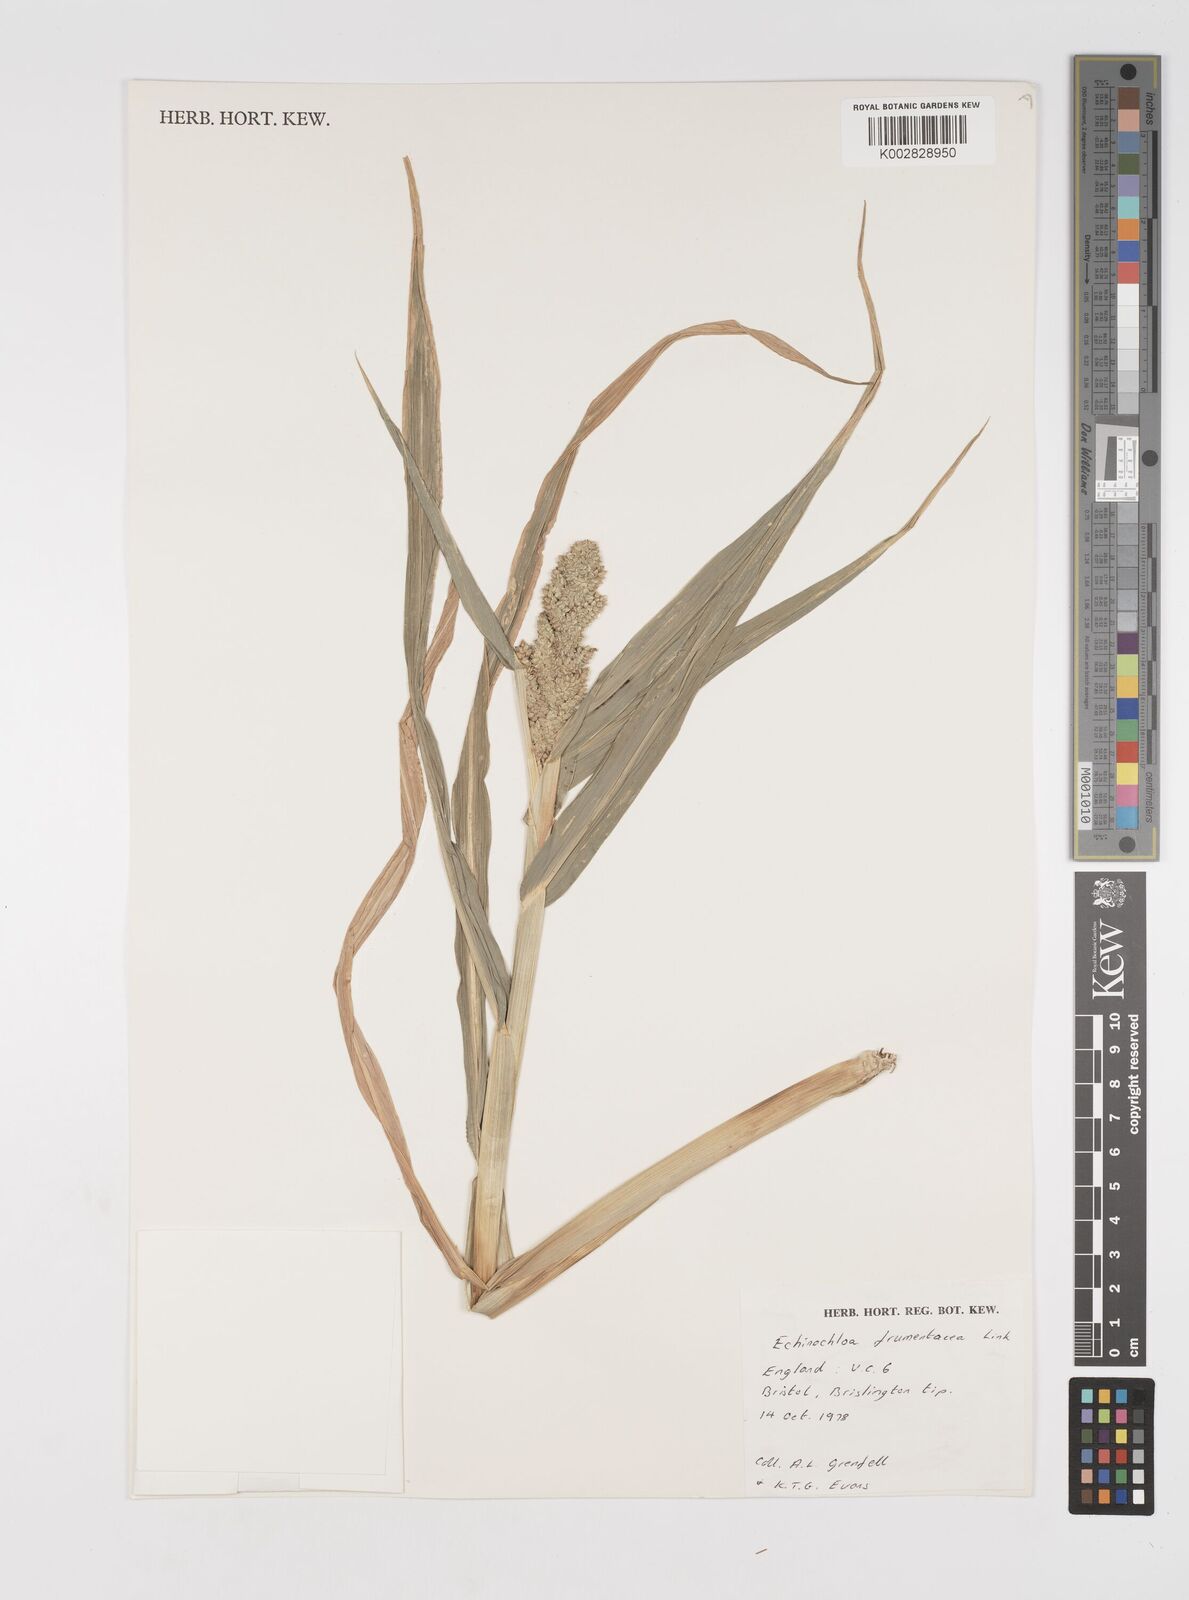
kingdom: Plantae
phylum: Tracheophyta
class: Liliopsida
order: Poales
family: Poaceae
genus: Echinochloa
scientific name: Echinochloa frumentacea
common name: Billion-dollar grass
